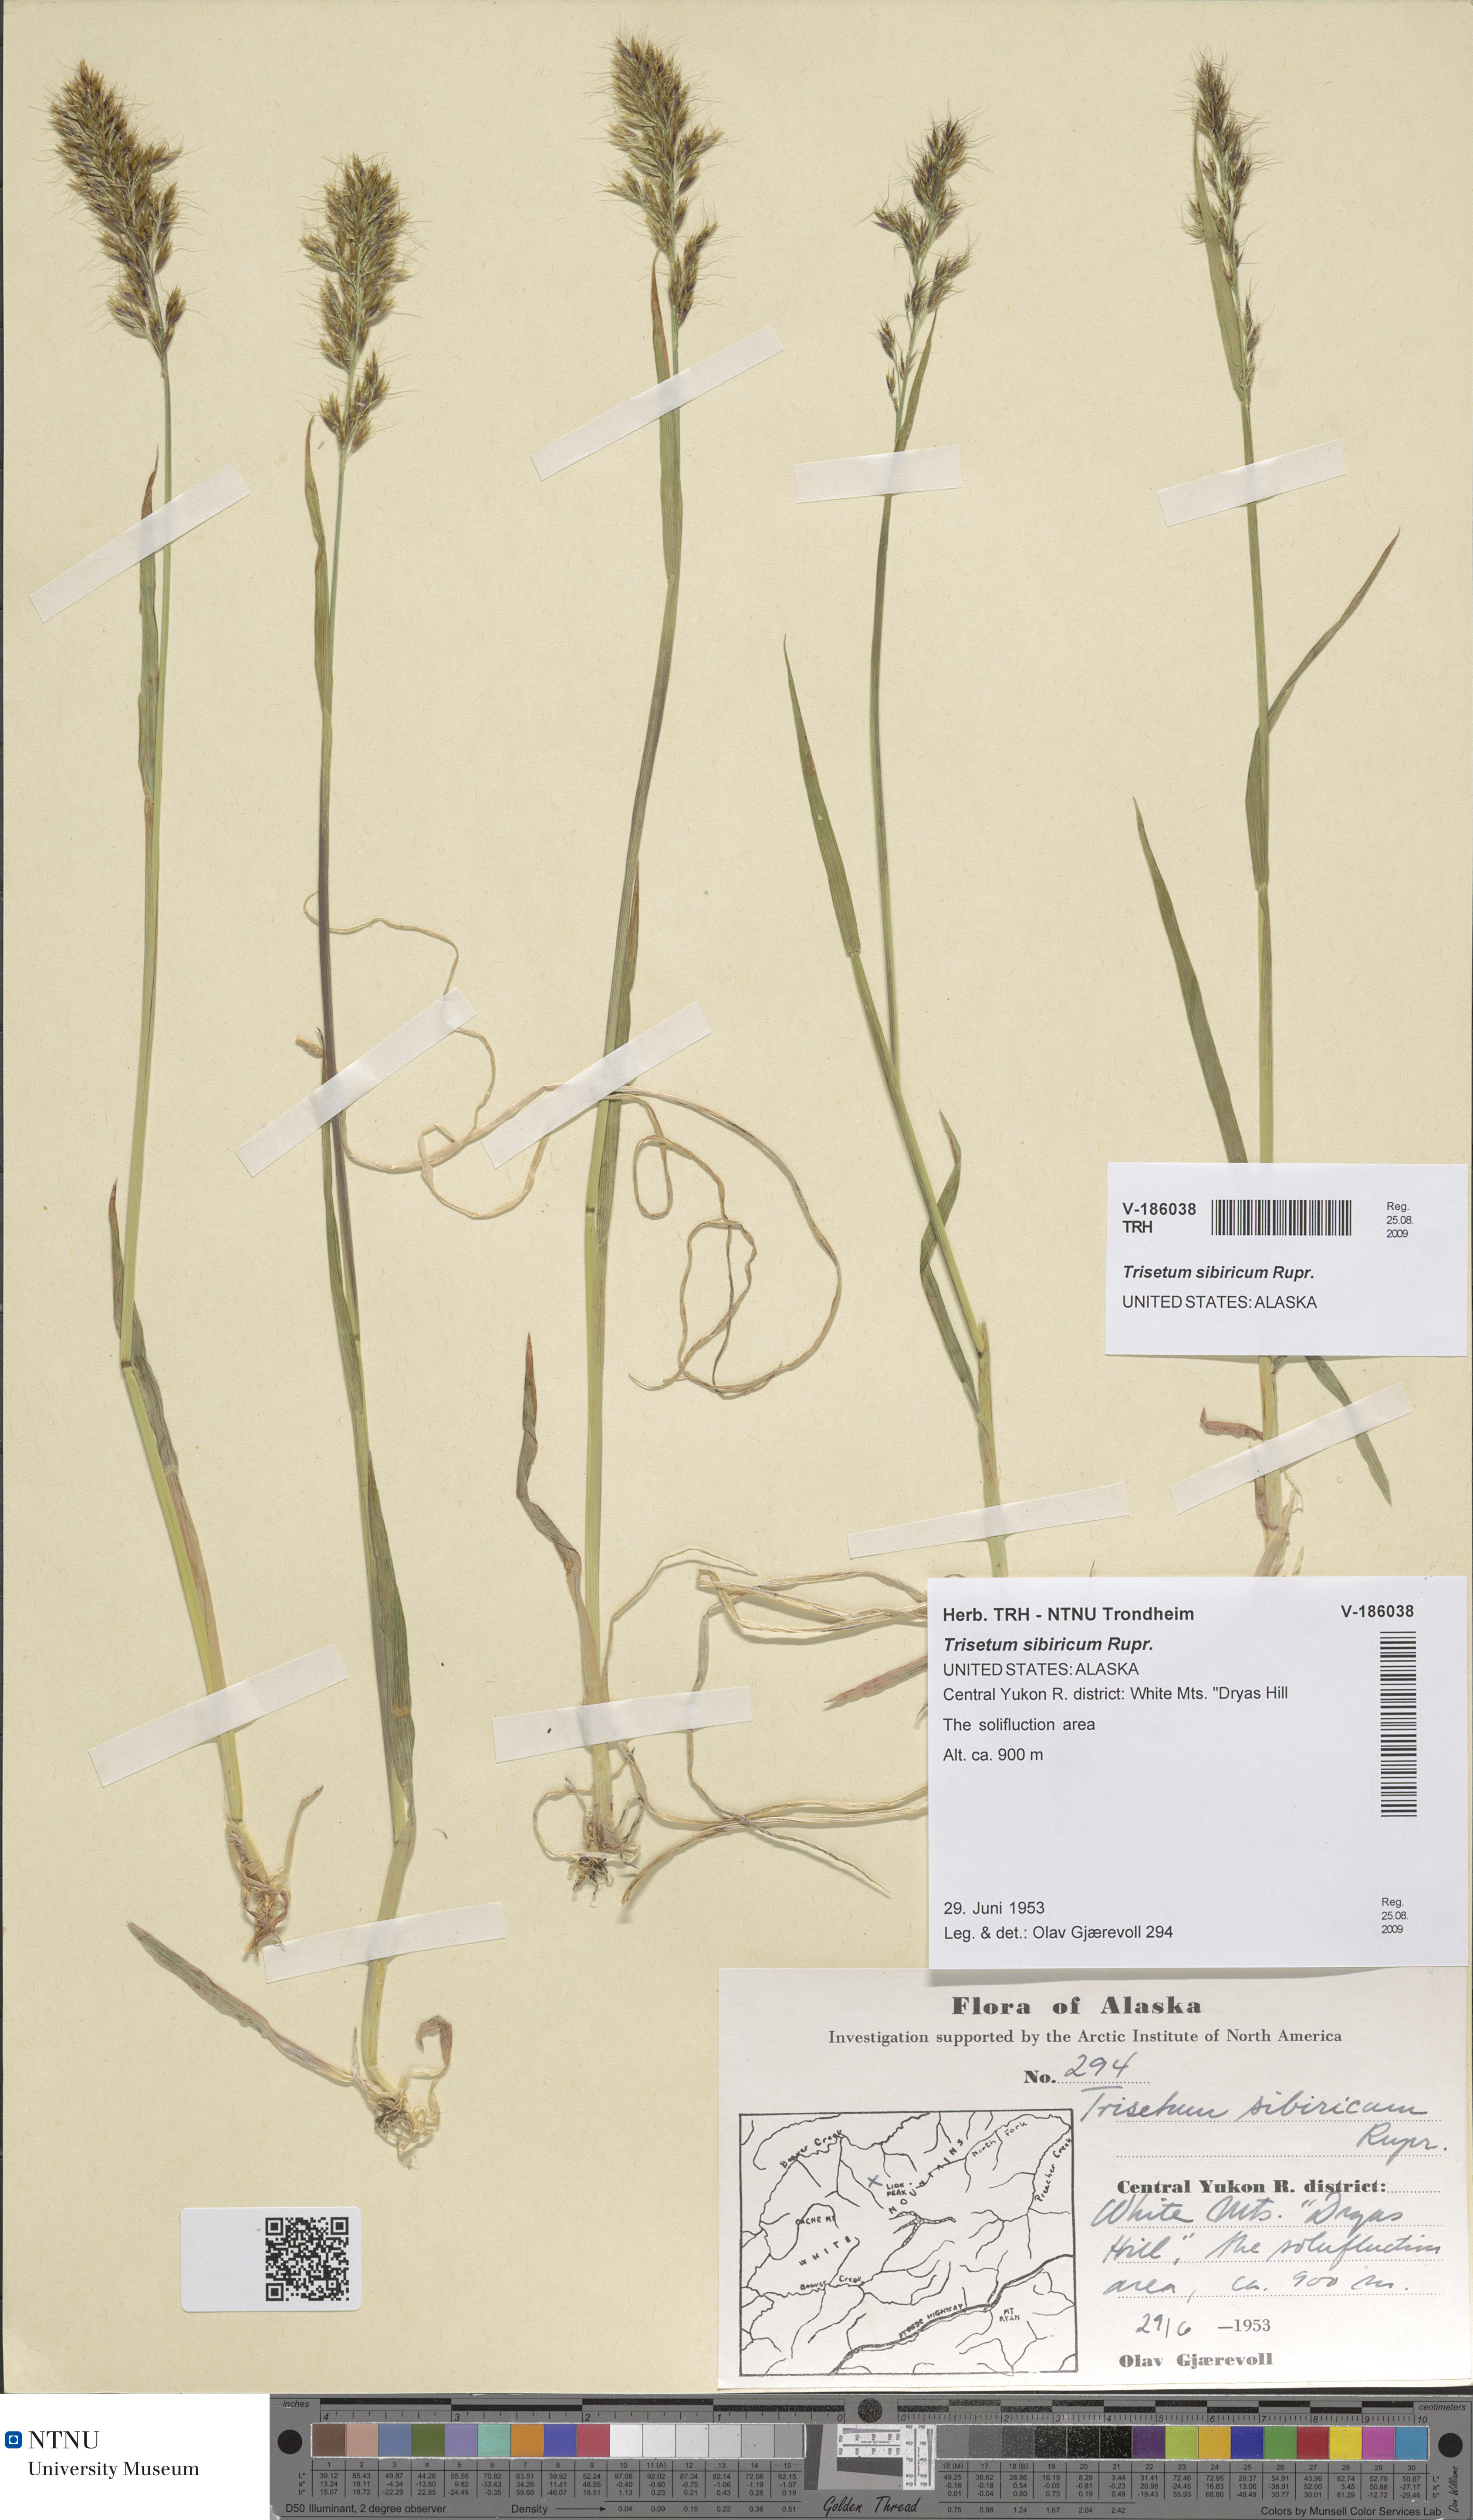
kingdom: Plantae
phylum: Tracheophyta
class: Liliopsida
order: Poales
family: Poaceae
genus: Sibirotrisetum
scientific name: Sibirotrisetum sibiricum
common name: Siberian false oat
